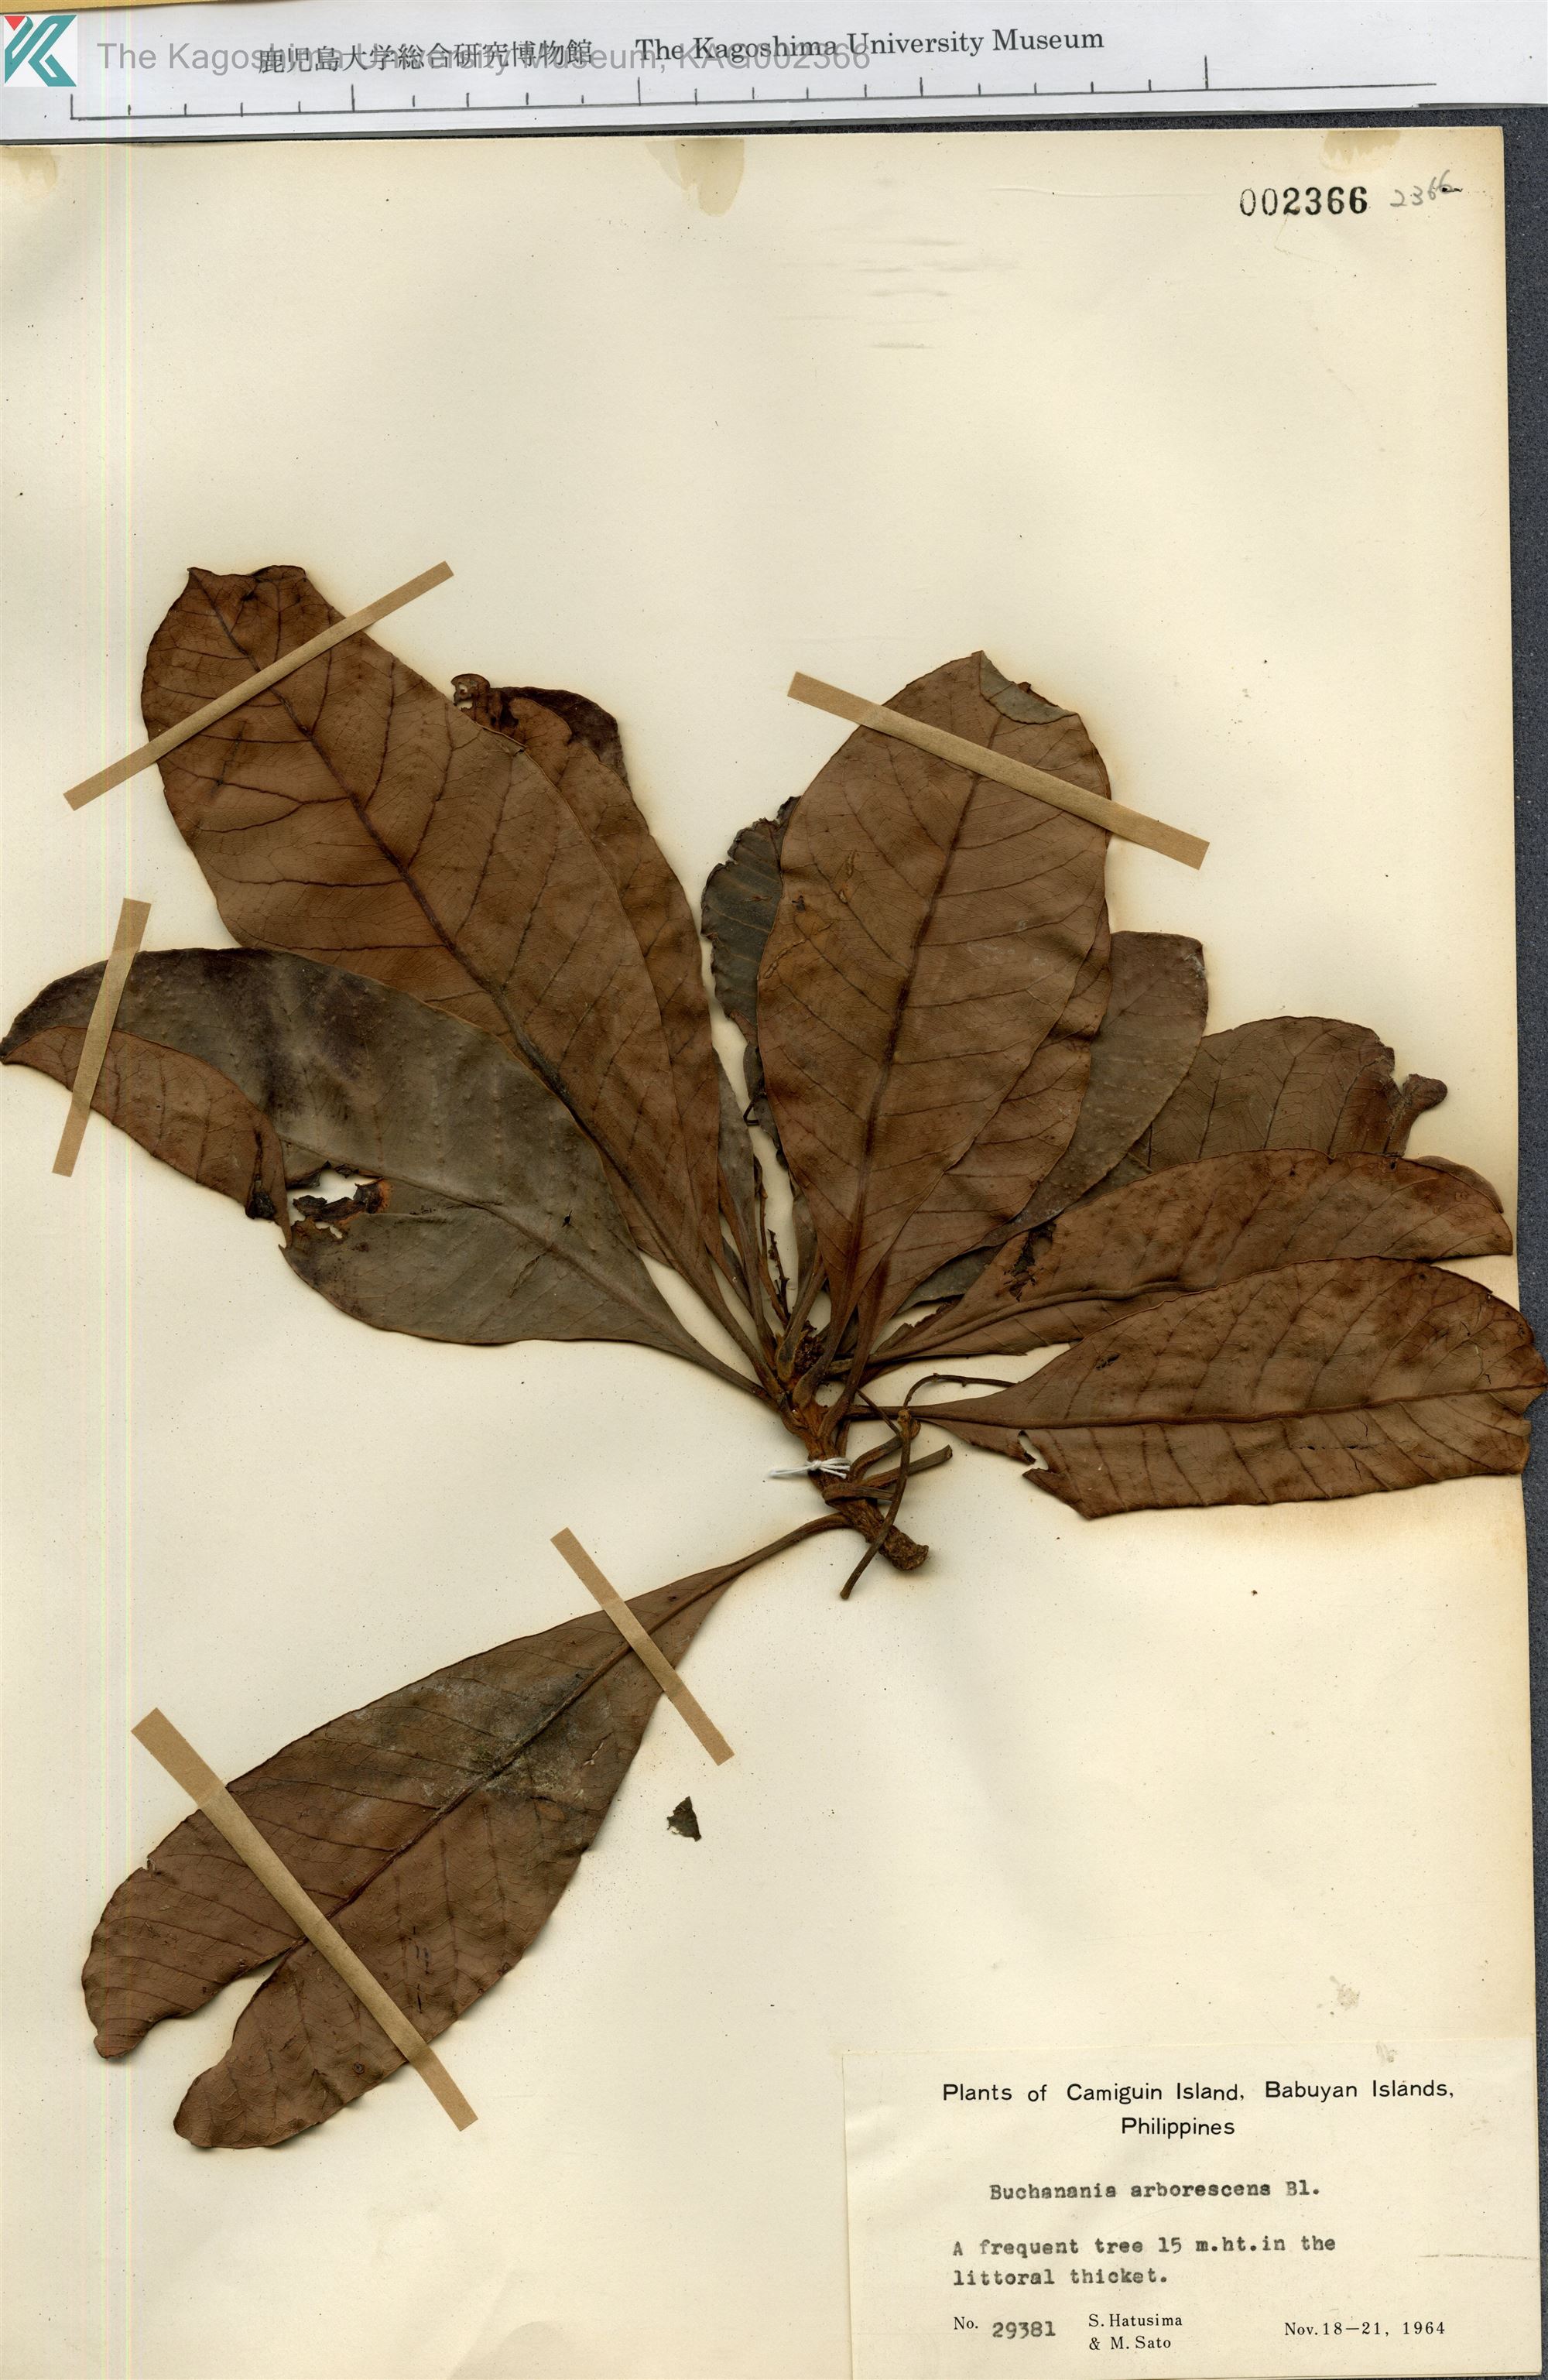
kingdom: Plantae
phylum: Tracheophyta
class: Magnoliopsida
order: Sapindales
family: Anacardiaceae
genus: Buchanania
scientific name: Buchanania arborescens
